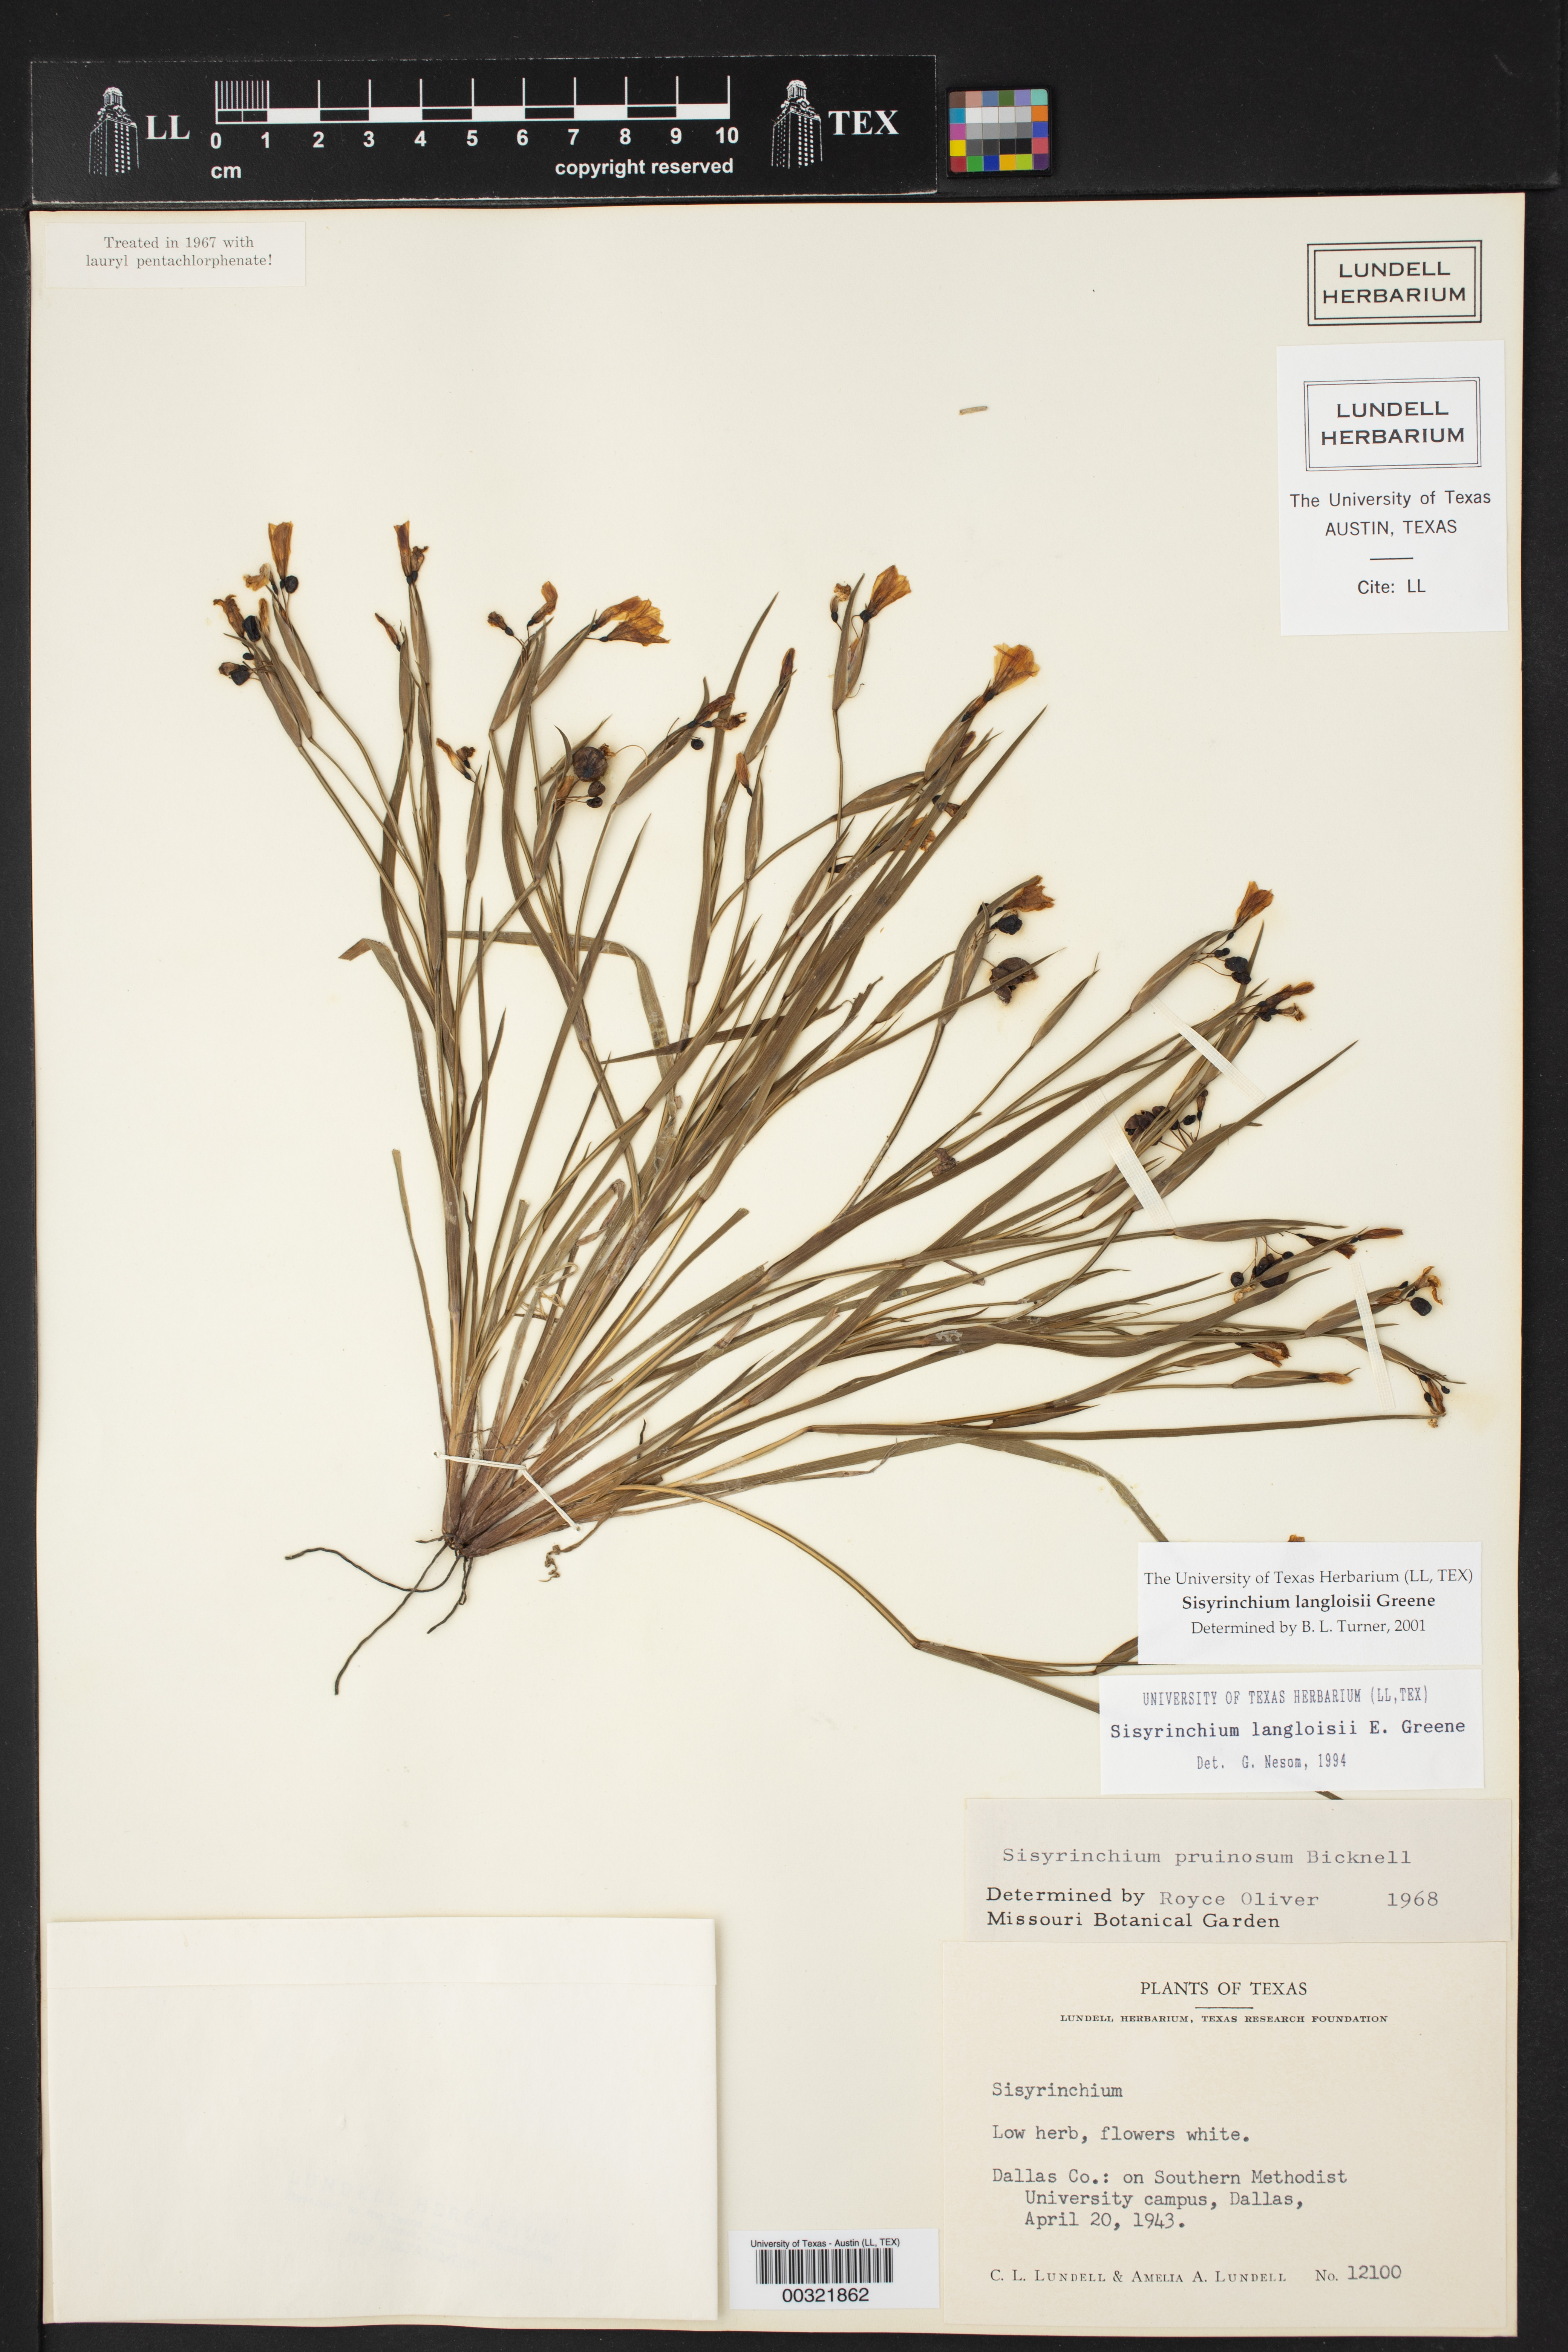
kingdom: Plantae
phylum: Tracheophyta
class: Liliopsida
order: Asparagales
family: Iridaceae
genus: Sisyrinchium
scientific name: Sisyrinchium langloisii
